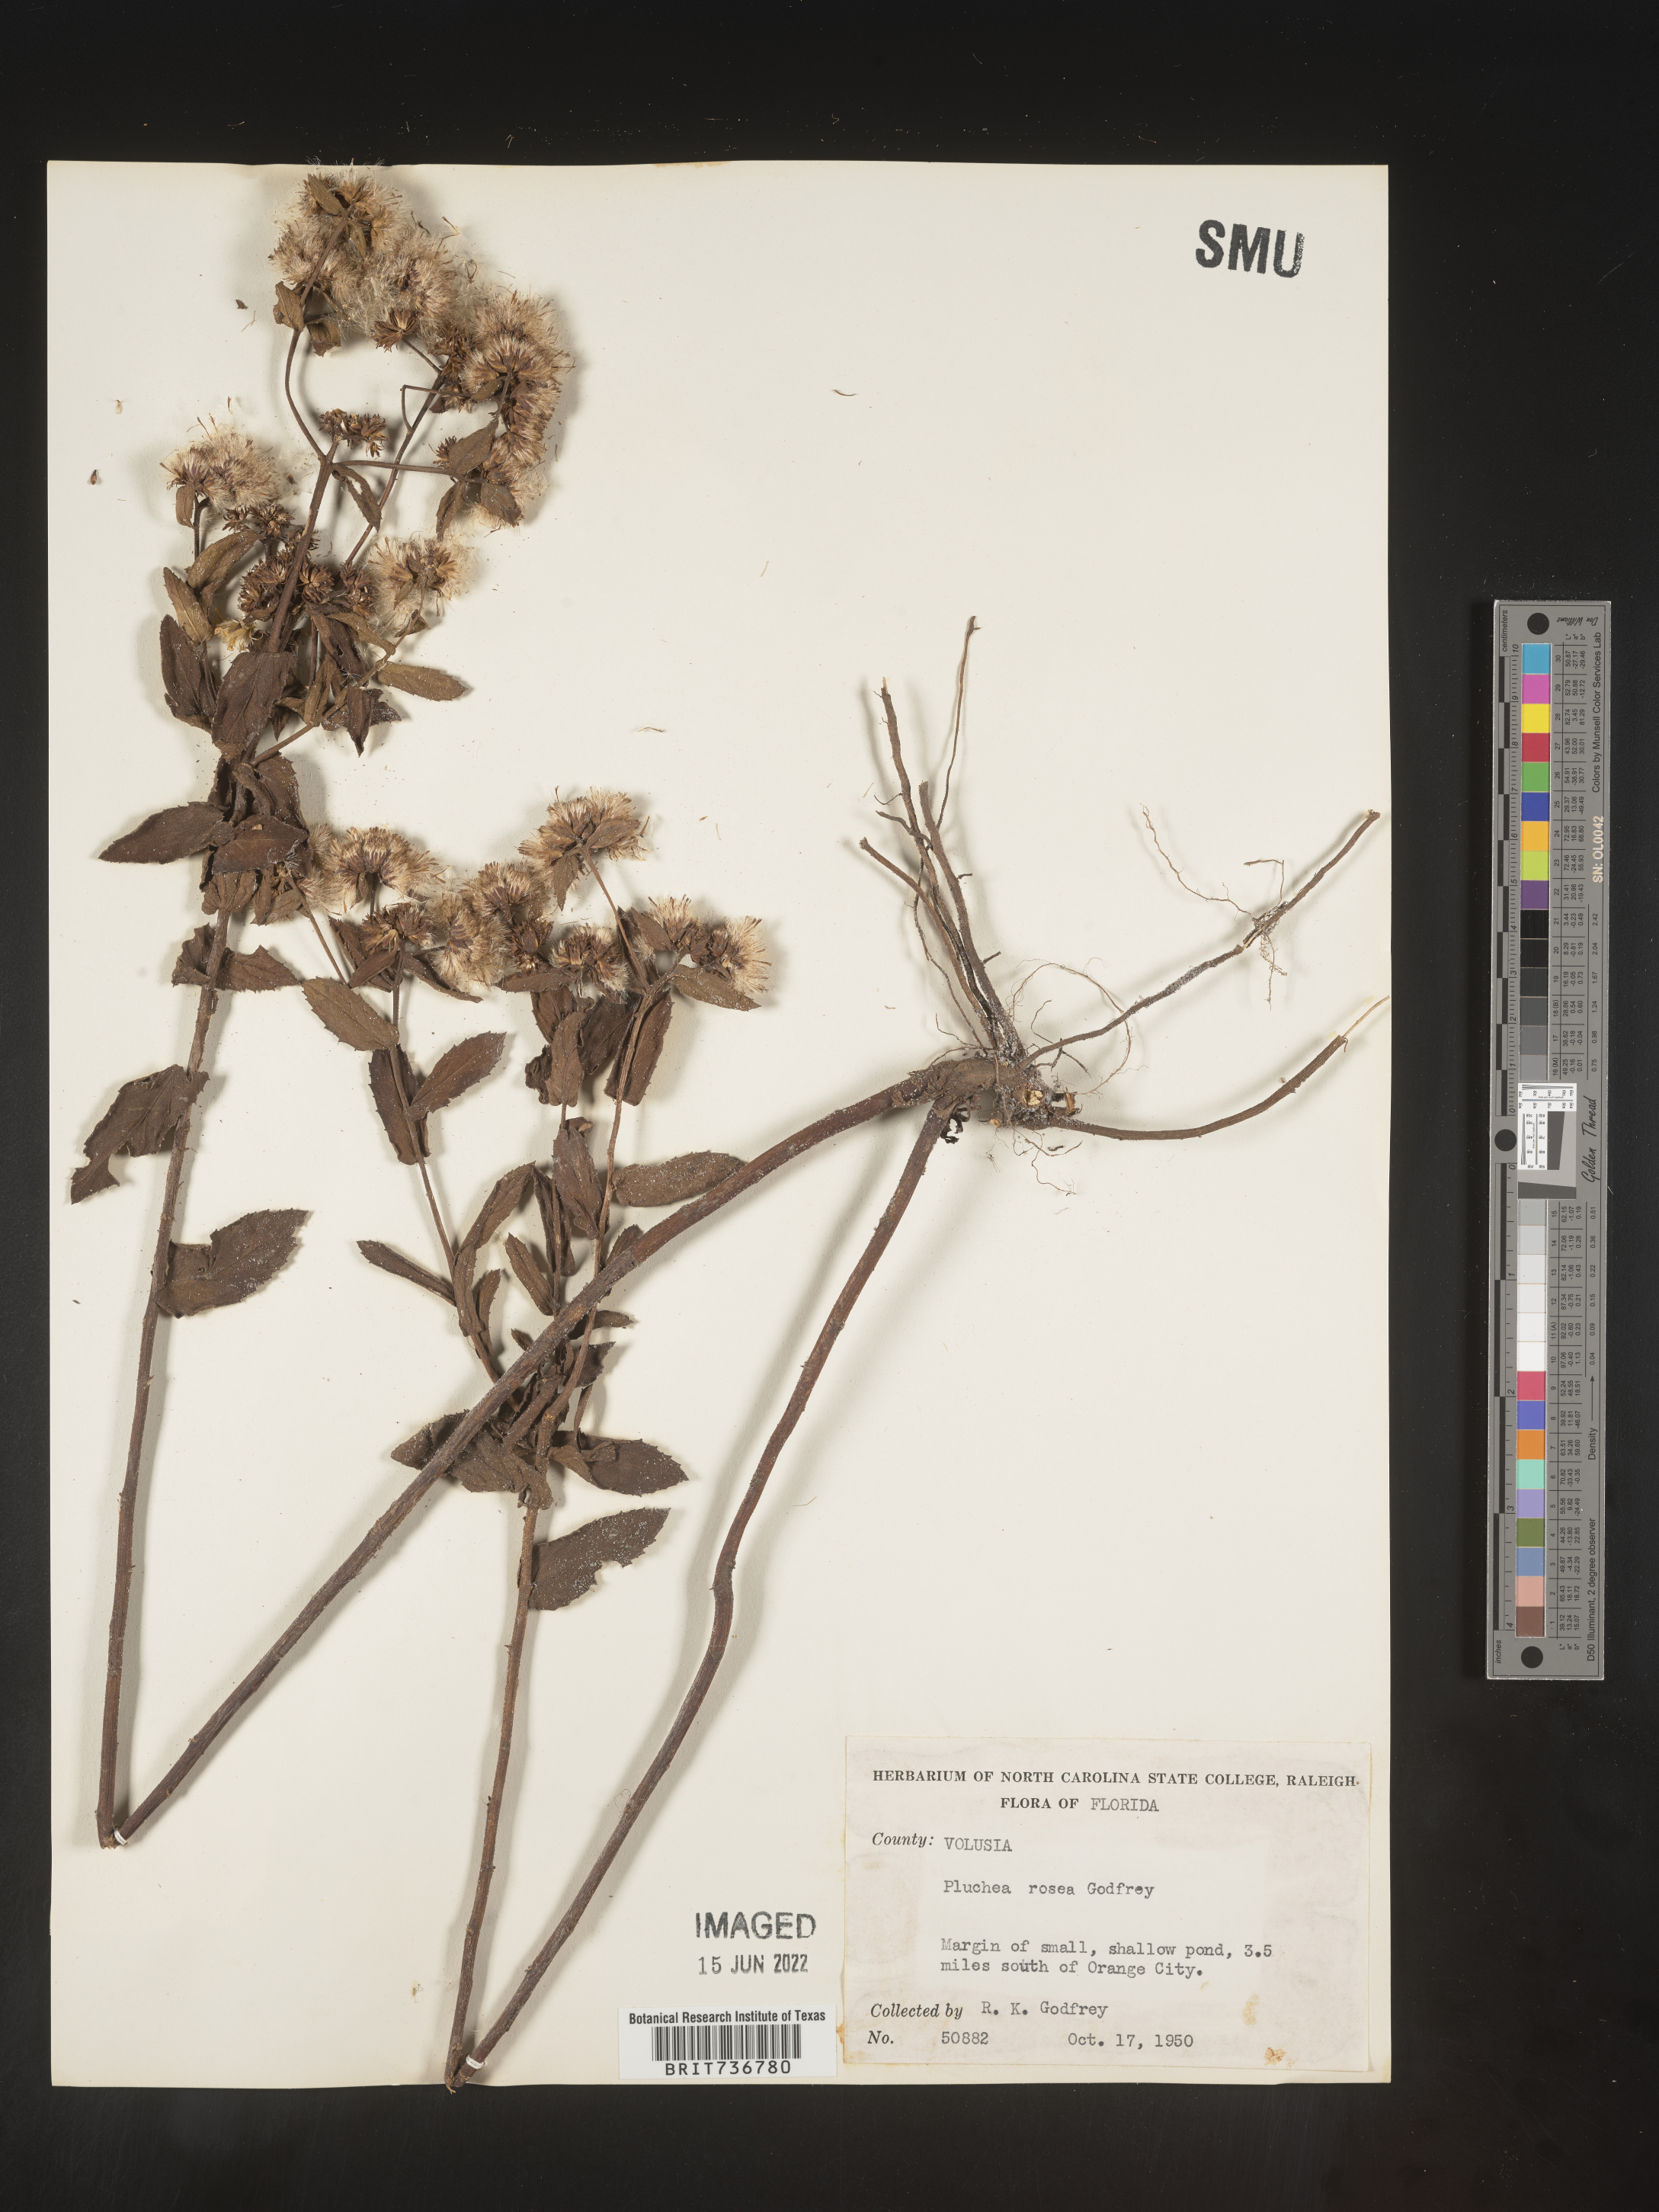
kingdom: Plantae
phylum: Tracheophyta
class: Magnoliopsida
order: Asterales
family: Asteraceae
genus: Pluchea
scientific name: Pluchea baccharis
